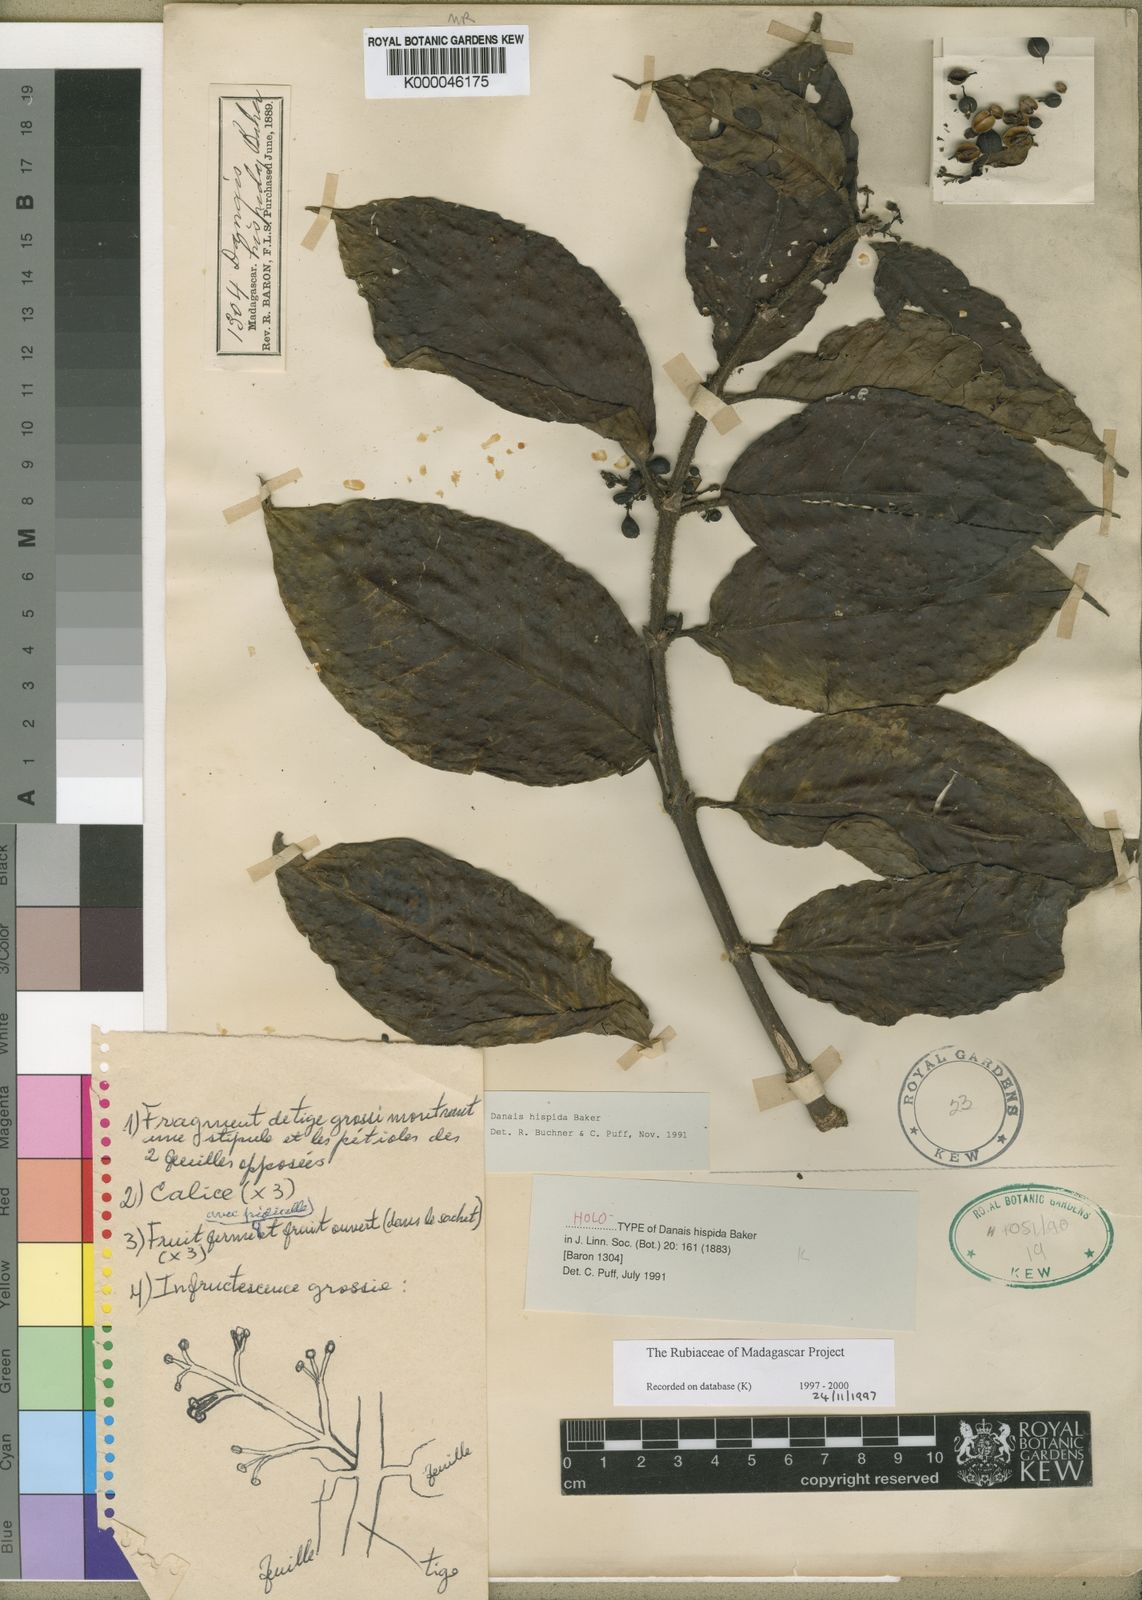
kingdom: Plantae
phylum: Tracheophyta
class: Magnoliopsida
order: Gentianales
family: Rubiaceae
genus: Danais
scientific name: Danais hispida
